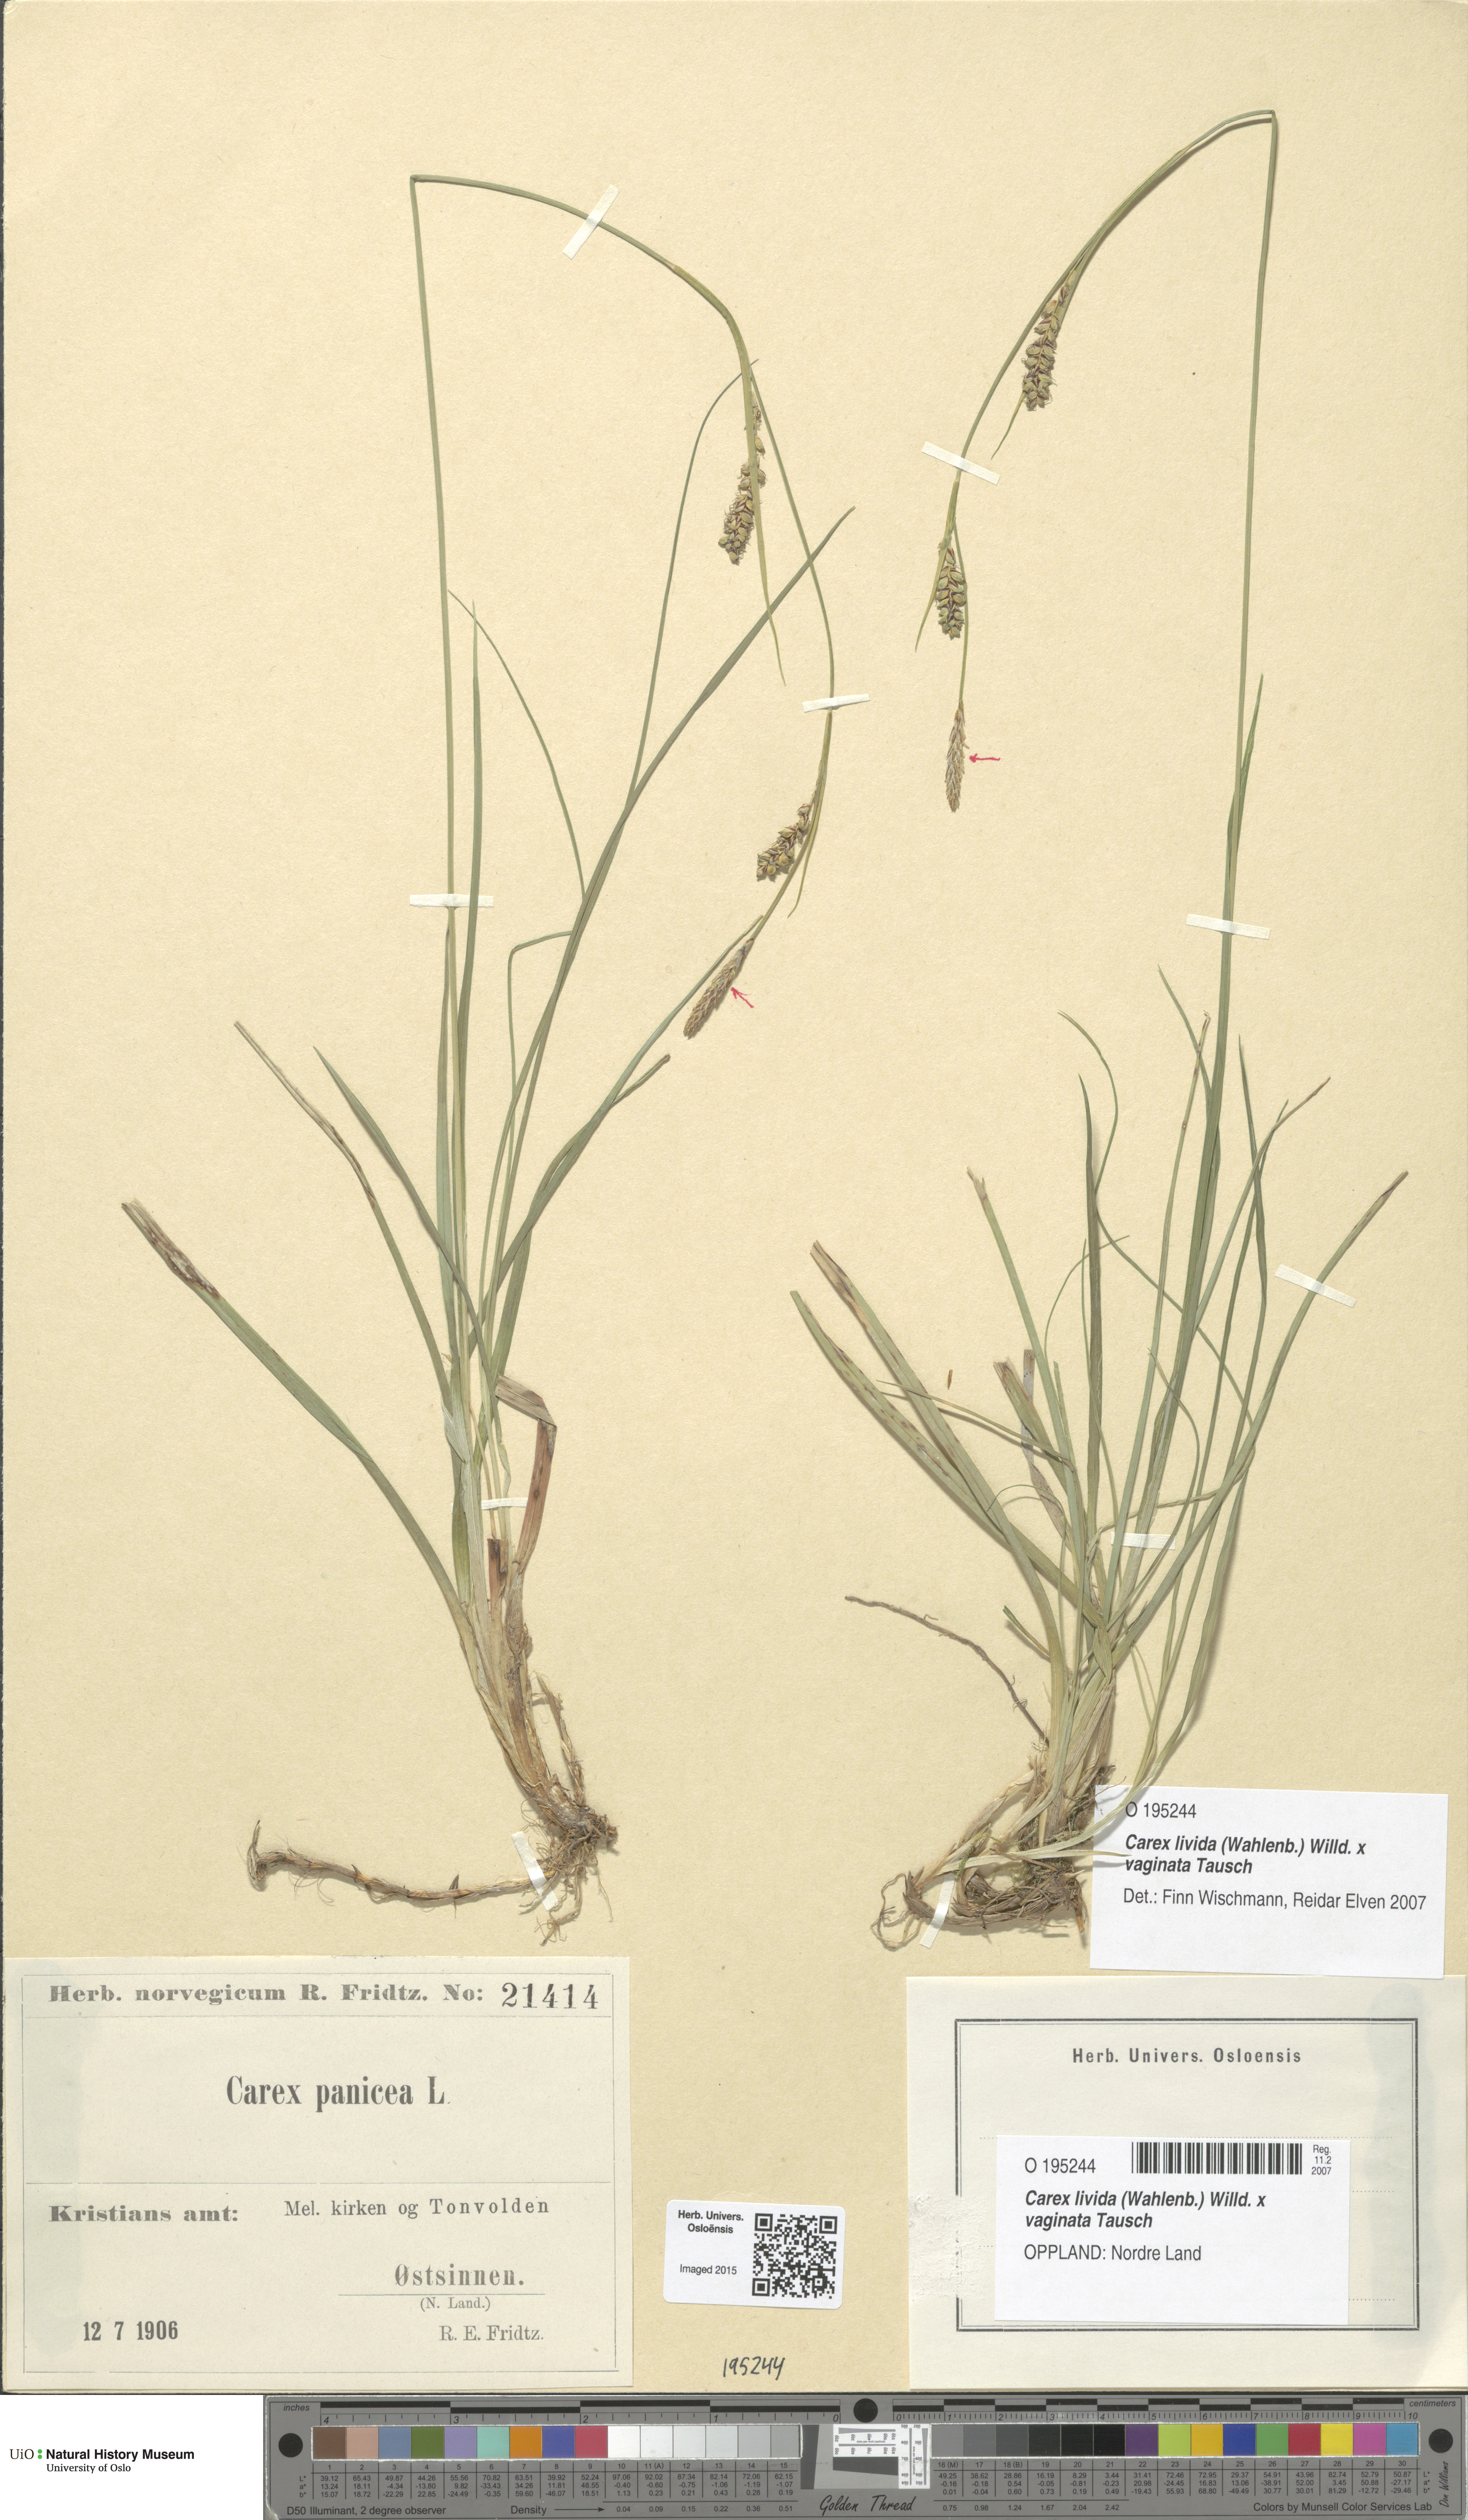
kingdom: Plantae
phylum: Tracheophyta
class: Liliopsida
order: Poales
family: Cyperaceae
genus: Carex
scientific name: Carex
